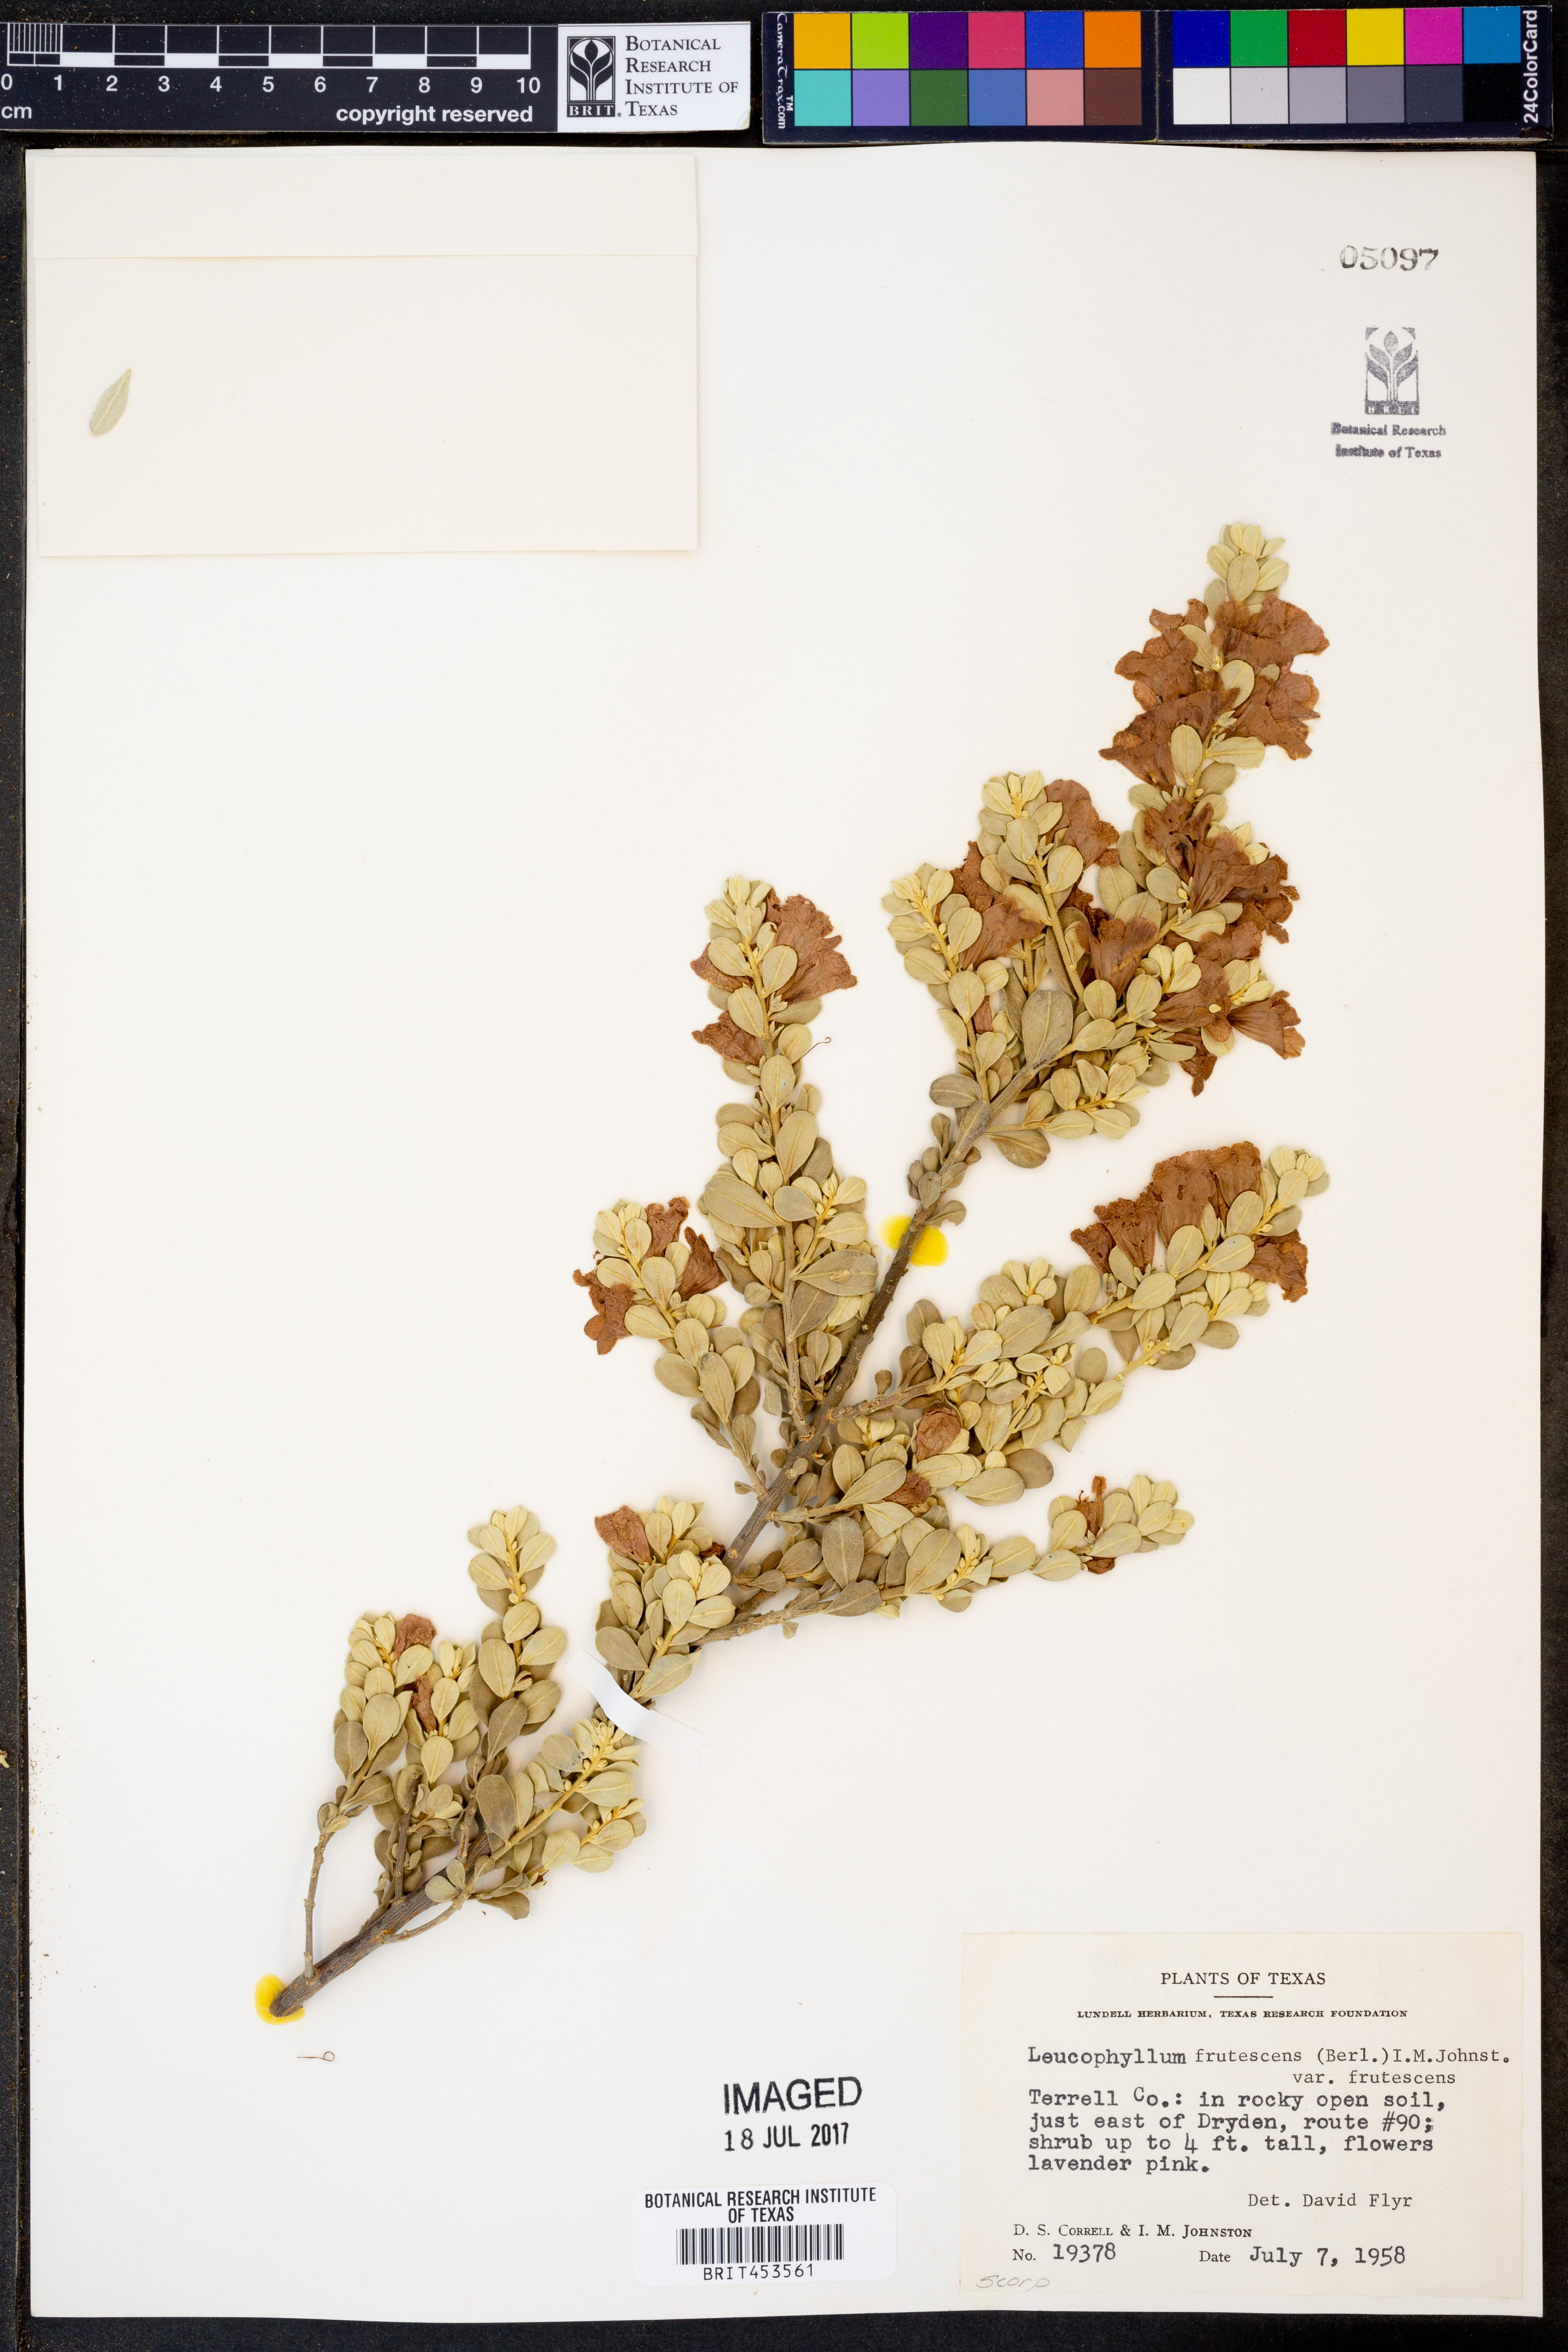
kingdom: Plantae
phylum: Tracheophyta
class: Magnoliopsida
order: Lamiales
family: Scrophulariaceae
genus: Leucophyllum
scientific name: Leucophyllum frutescens
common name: Texas silverleaf
